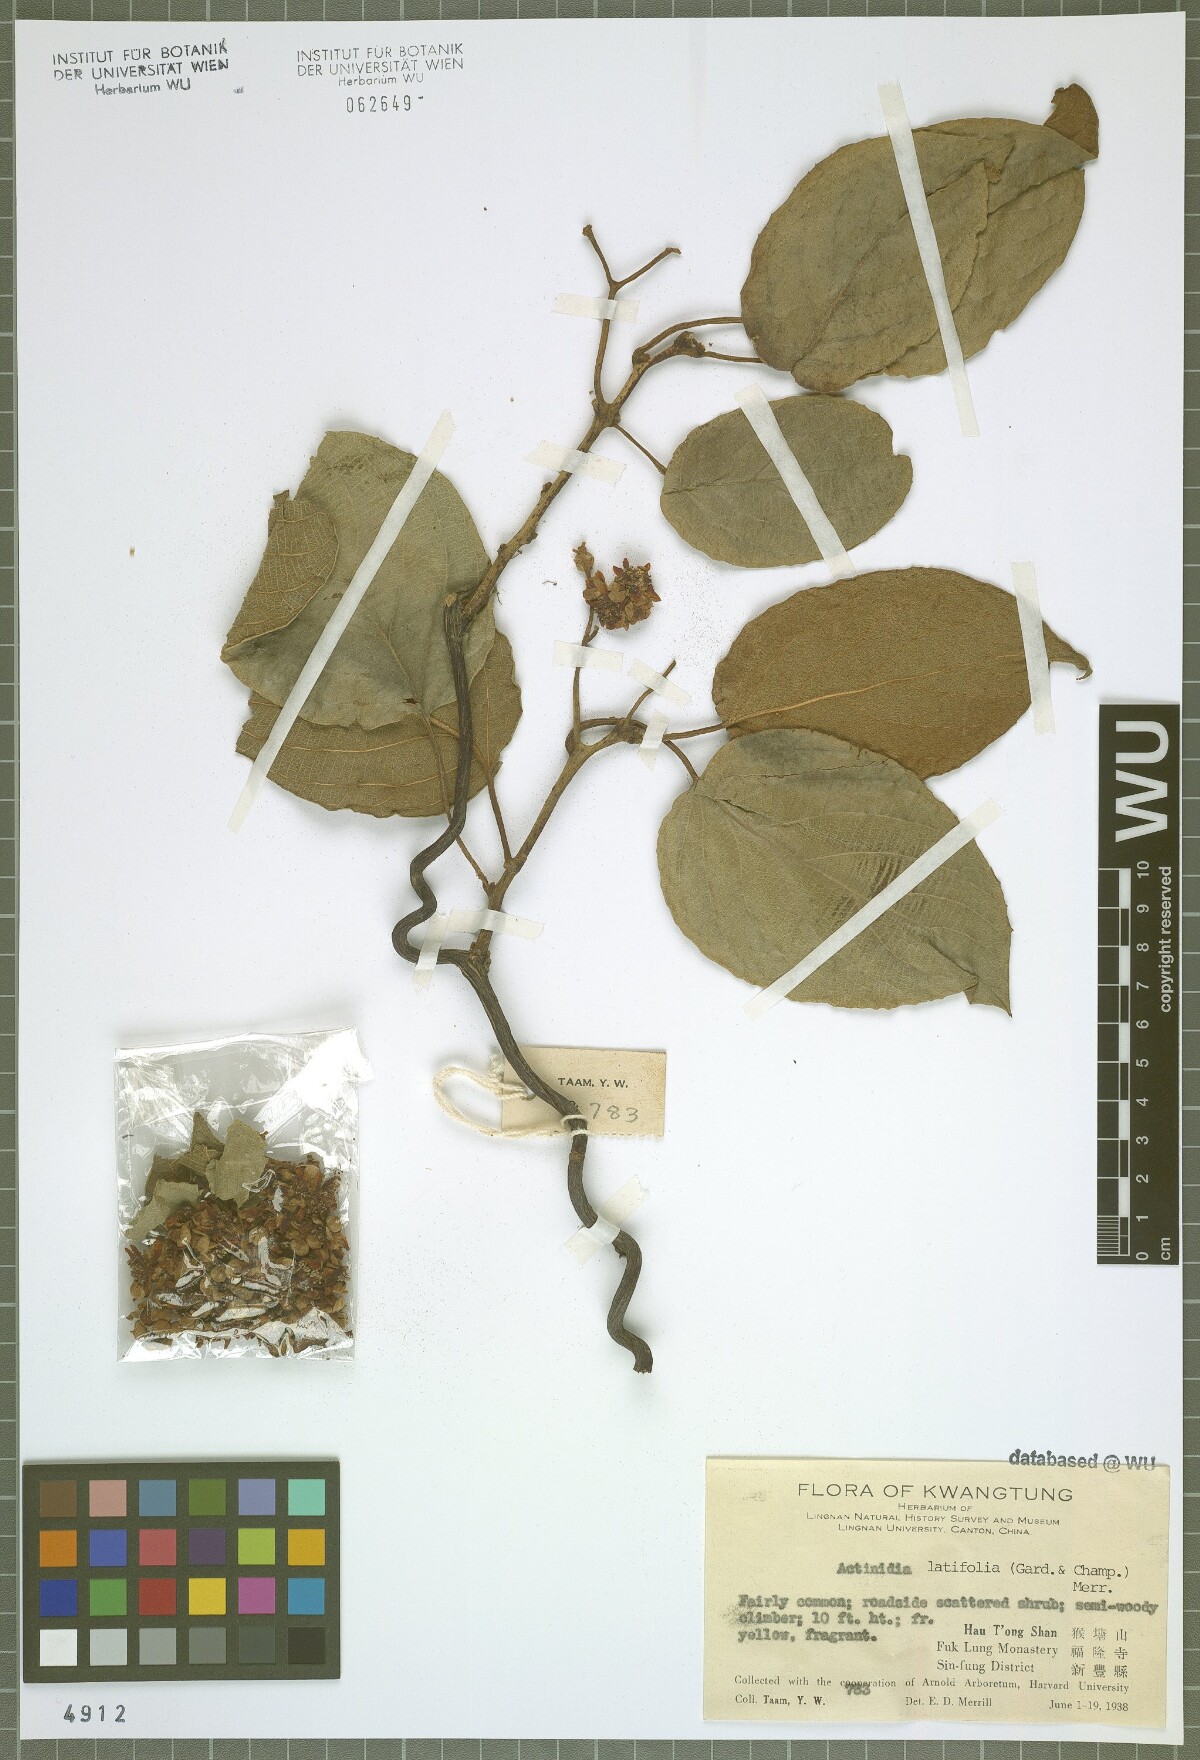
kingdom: Plantae
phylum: Tracheophyta
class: Magnoliopsida
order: Ericales
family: Actinidiaceae
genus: Actinidia
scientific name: Actinidia latifolia
